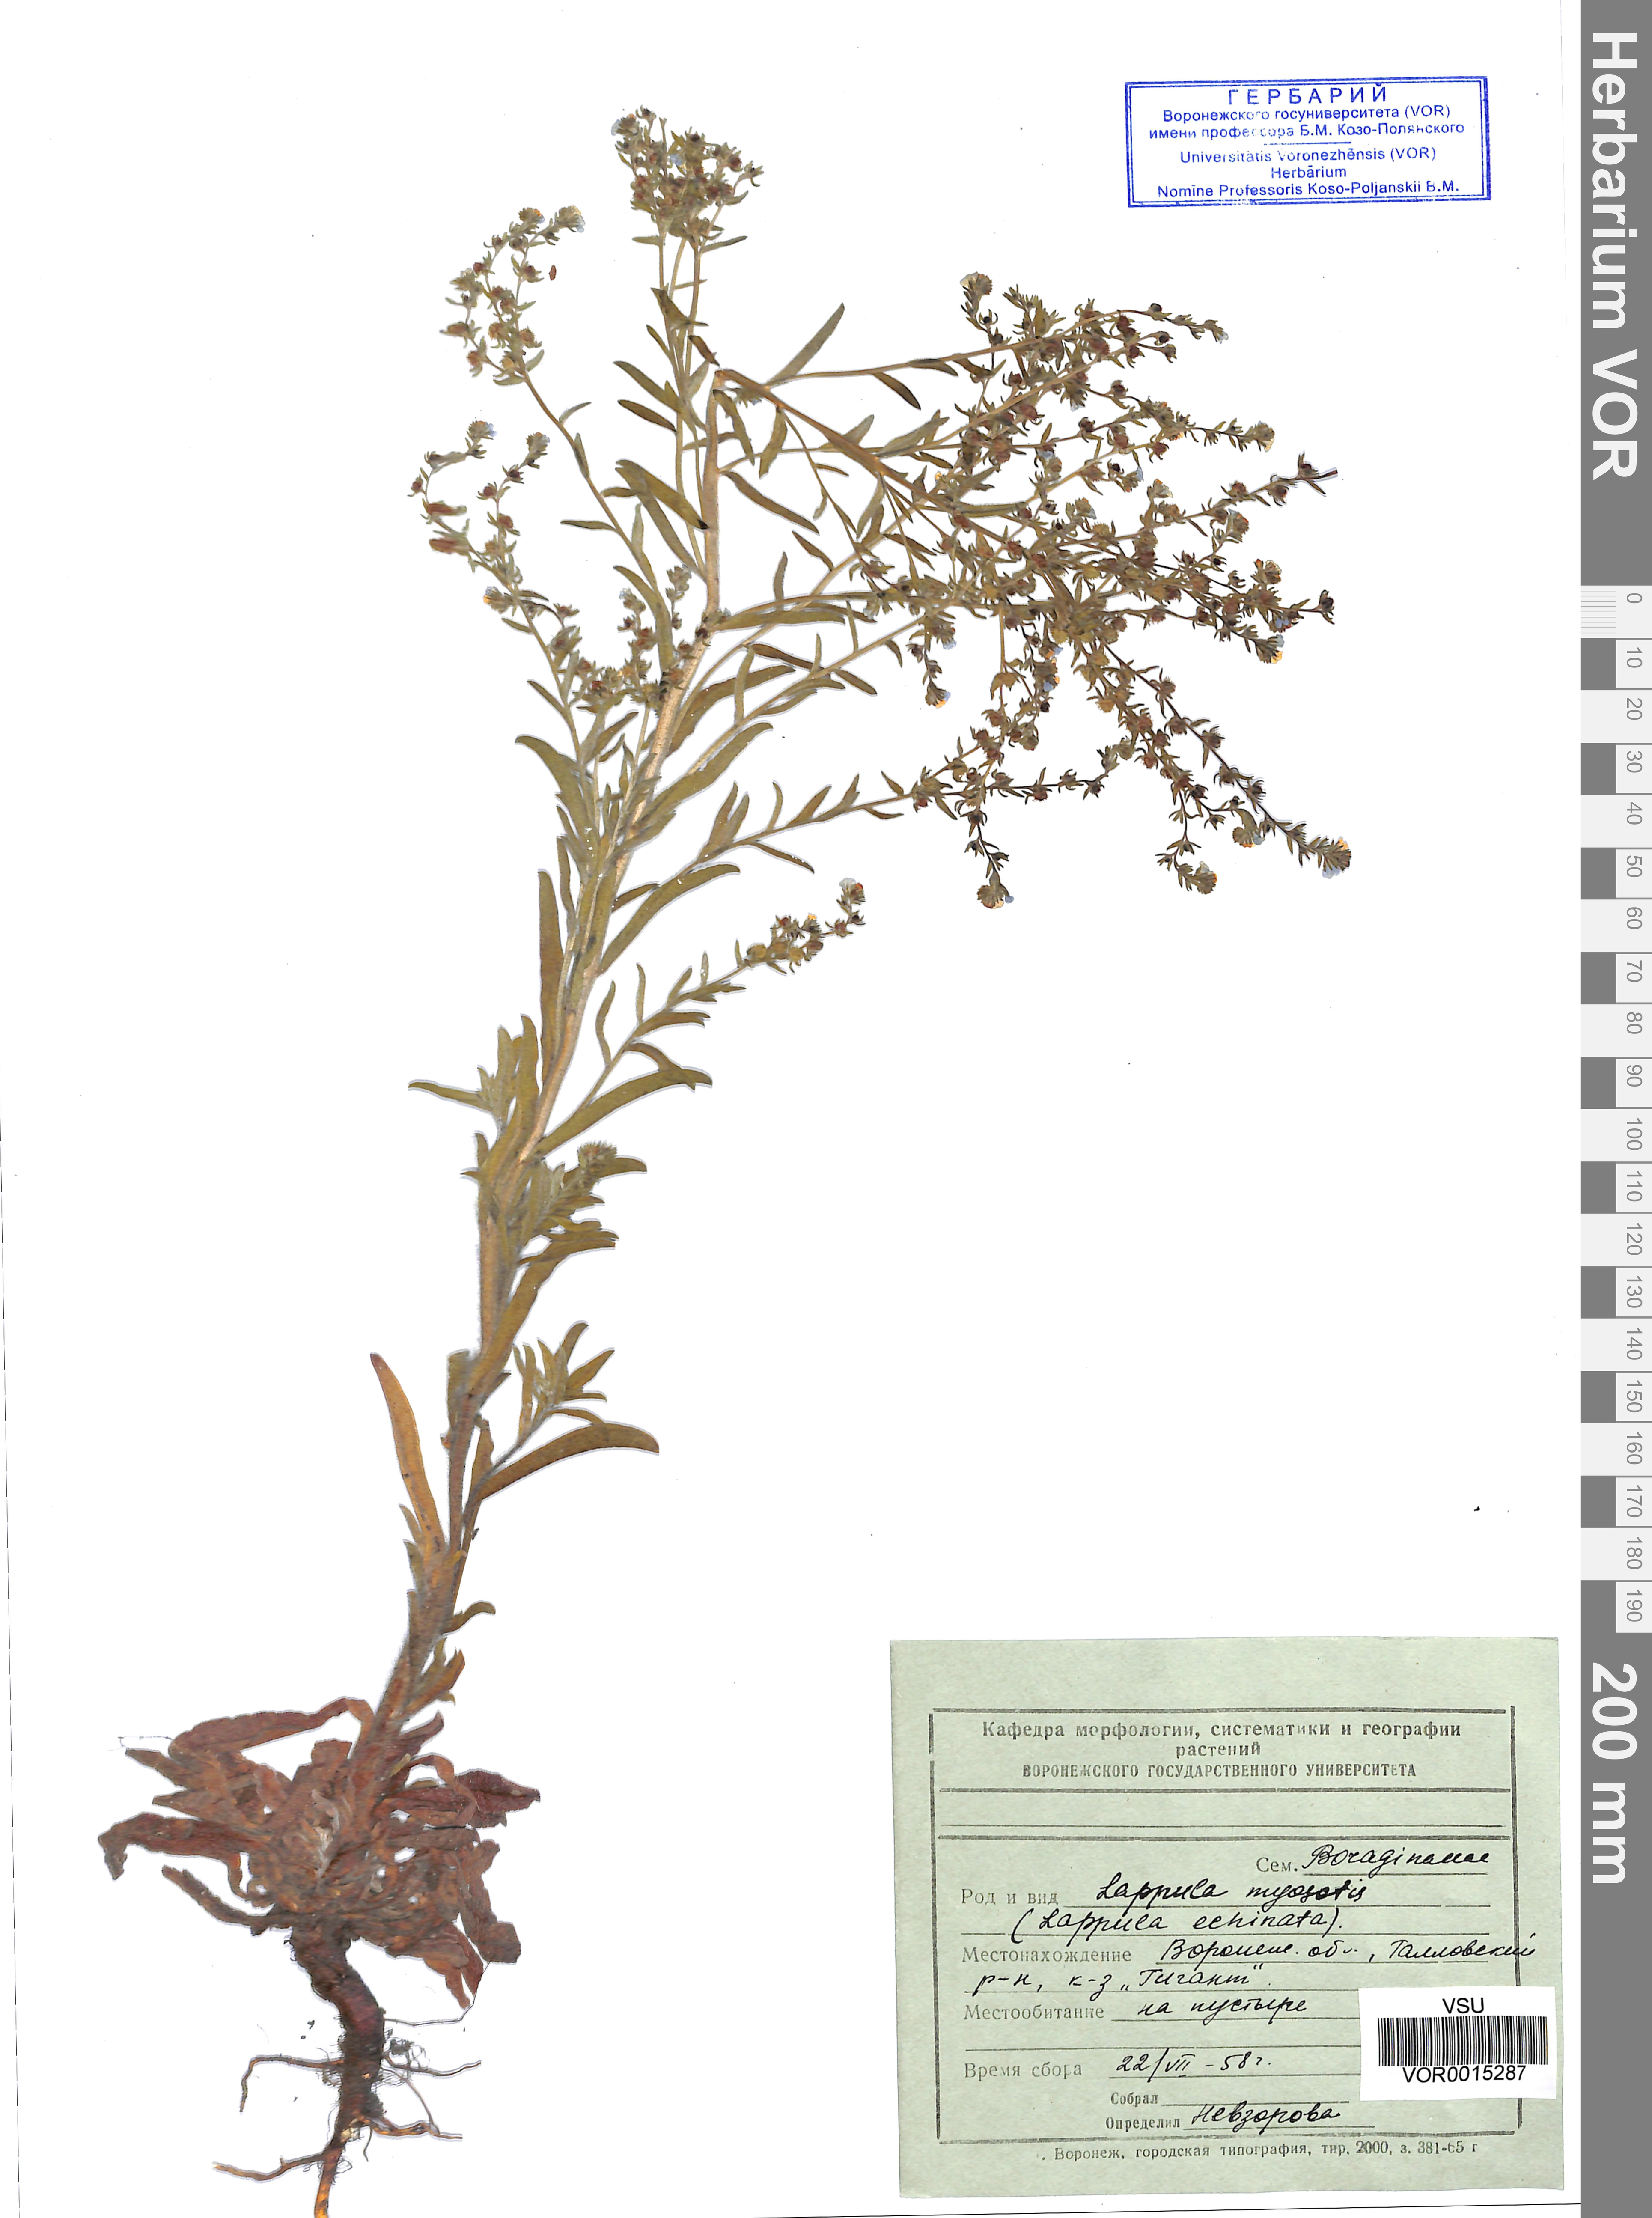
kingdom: Plantae
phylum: Tracheophyta
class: Magnoliopsida
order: Boraginales
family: Boraginaceae
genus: Lappula
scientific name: Lappula squarrosa
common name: European stickseed
